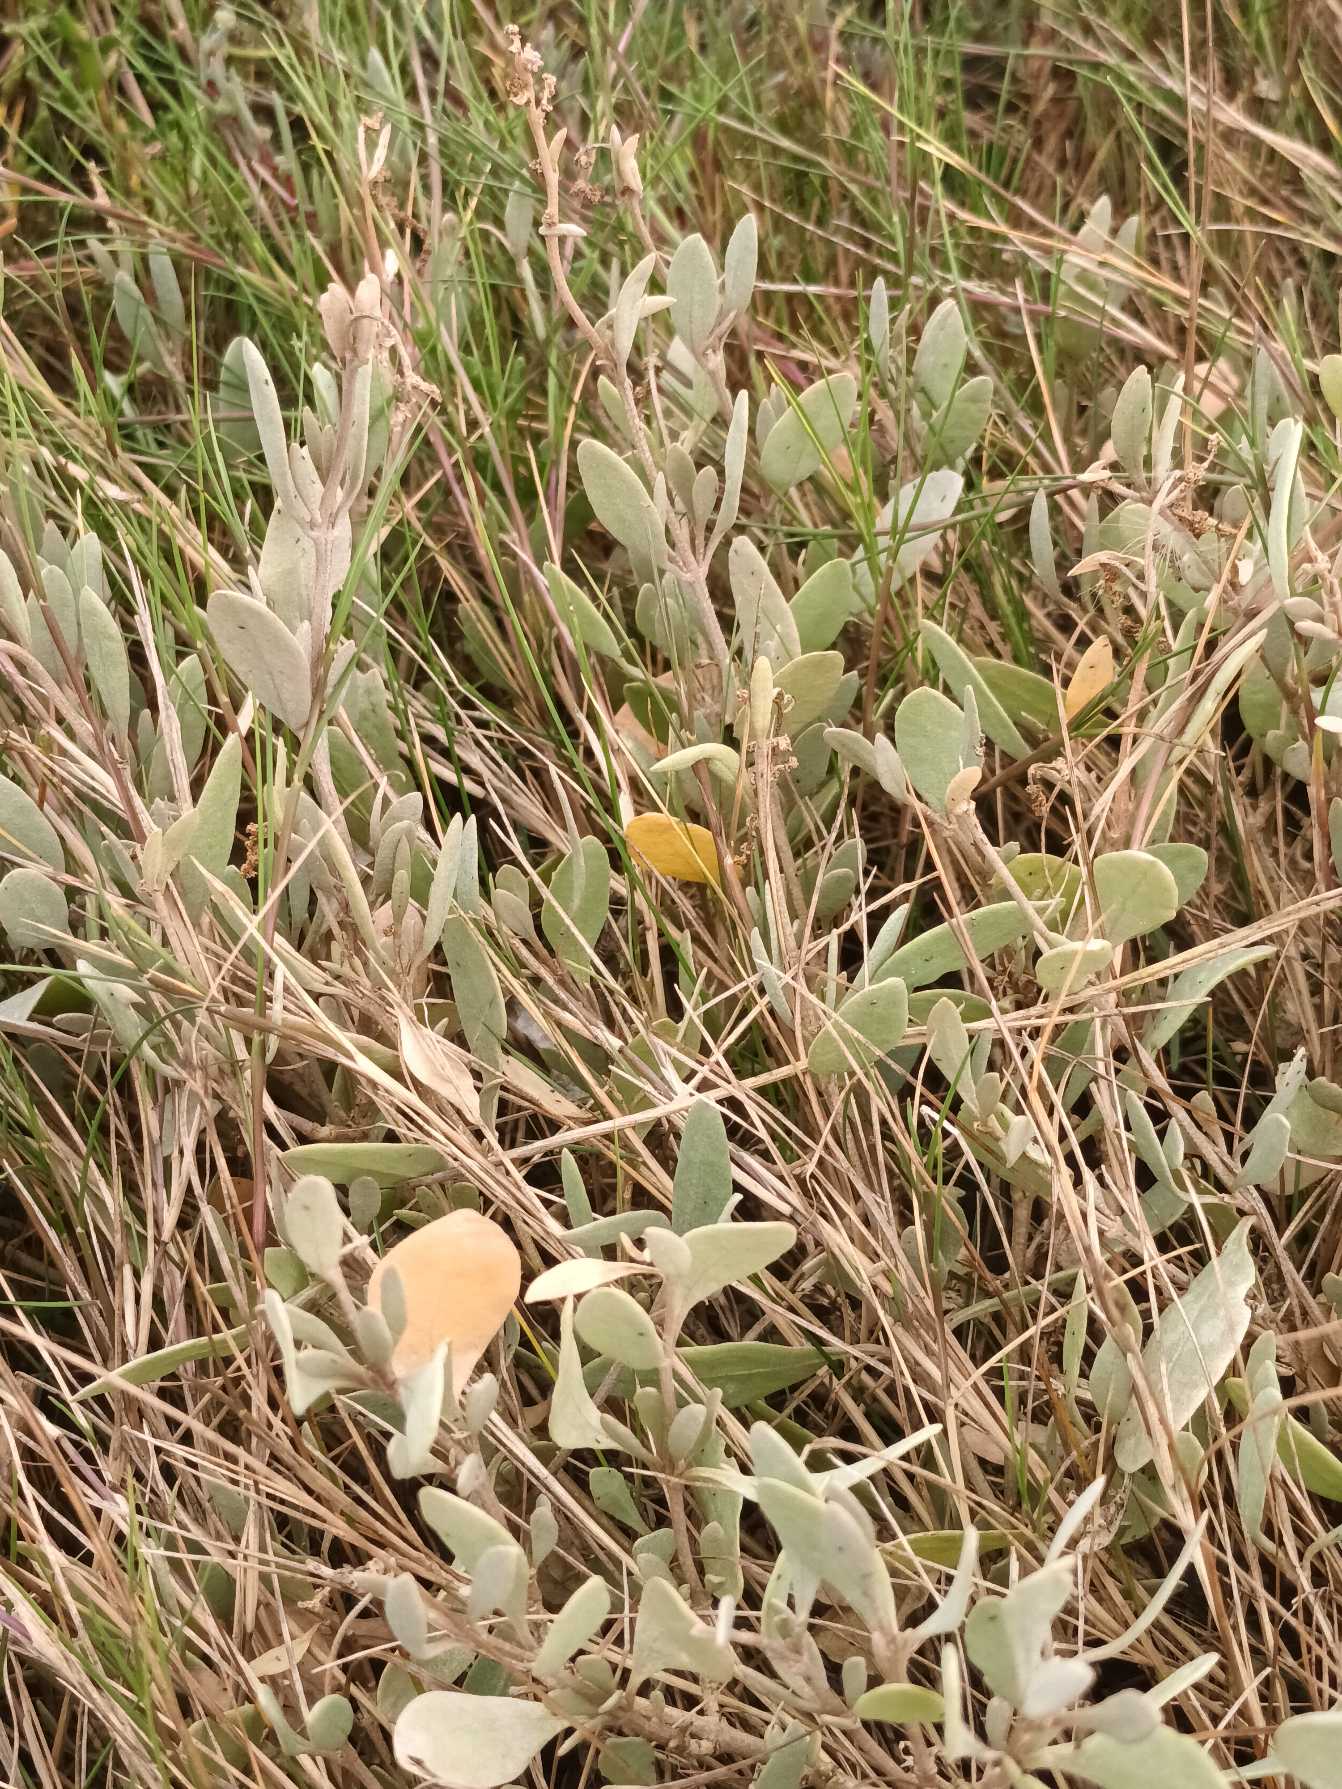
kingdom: Plantae
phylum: Tracheophyta
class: Magnoliopsida
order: Caryophyllales
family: Amaranthaceae
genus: Halimione
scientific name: Halimione portulacoides
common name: Stilkløs kilebæger
